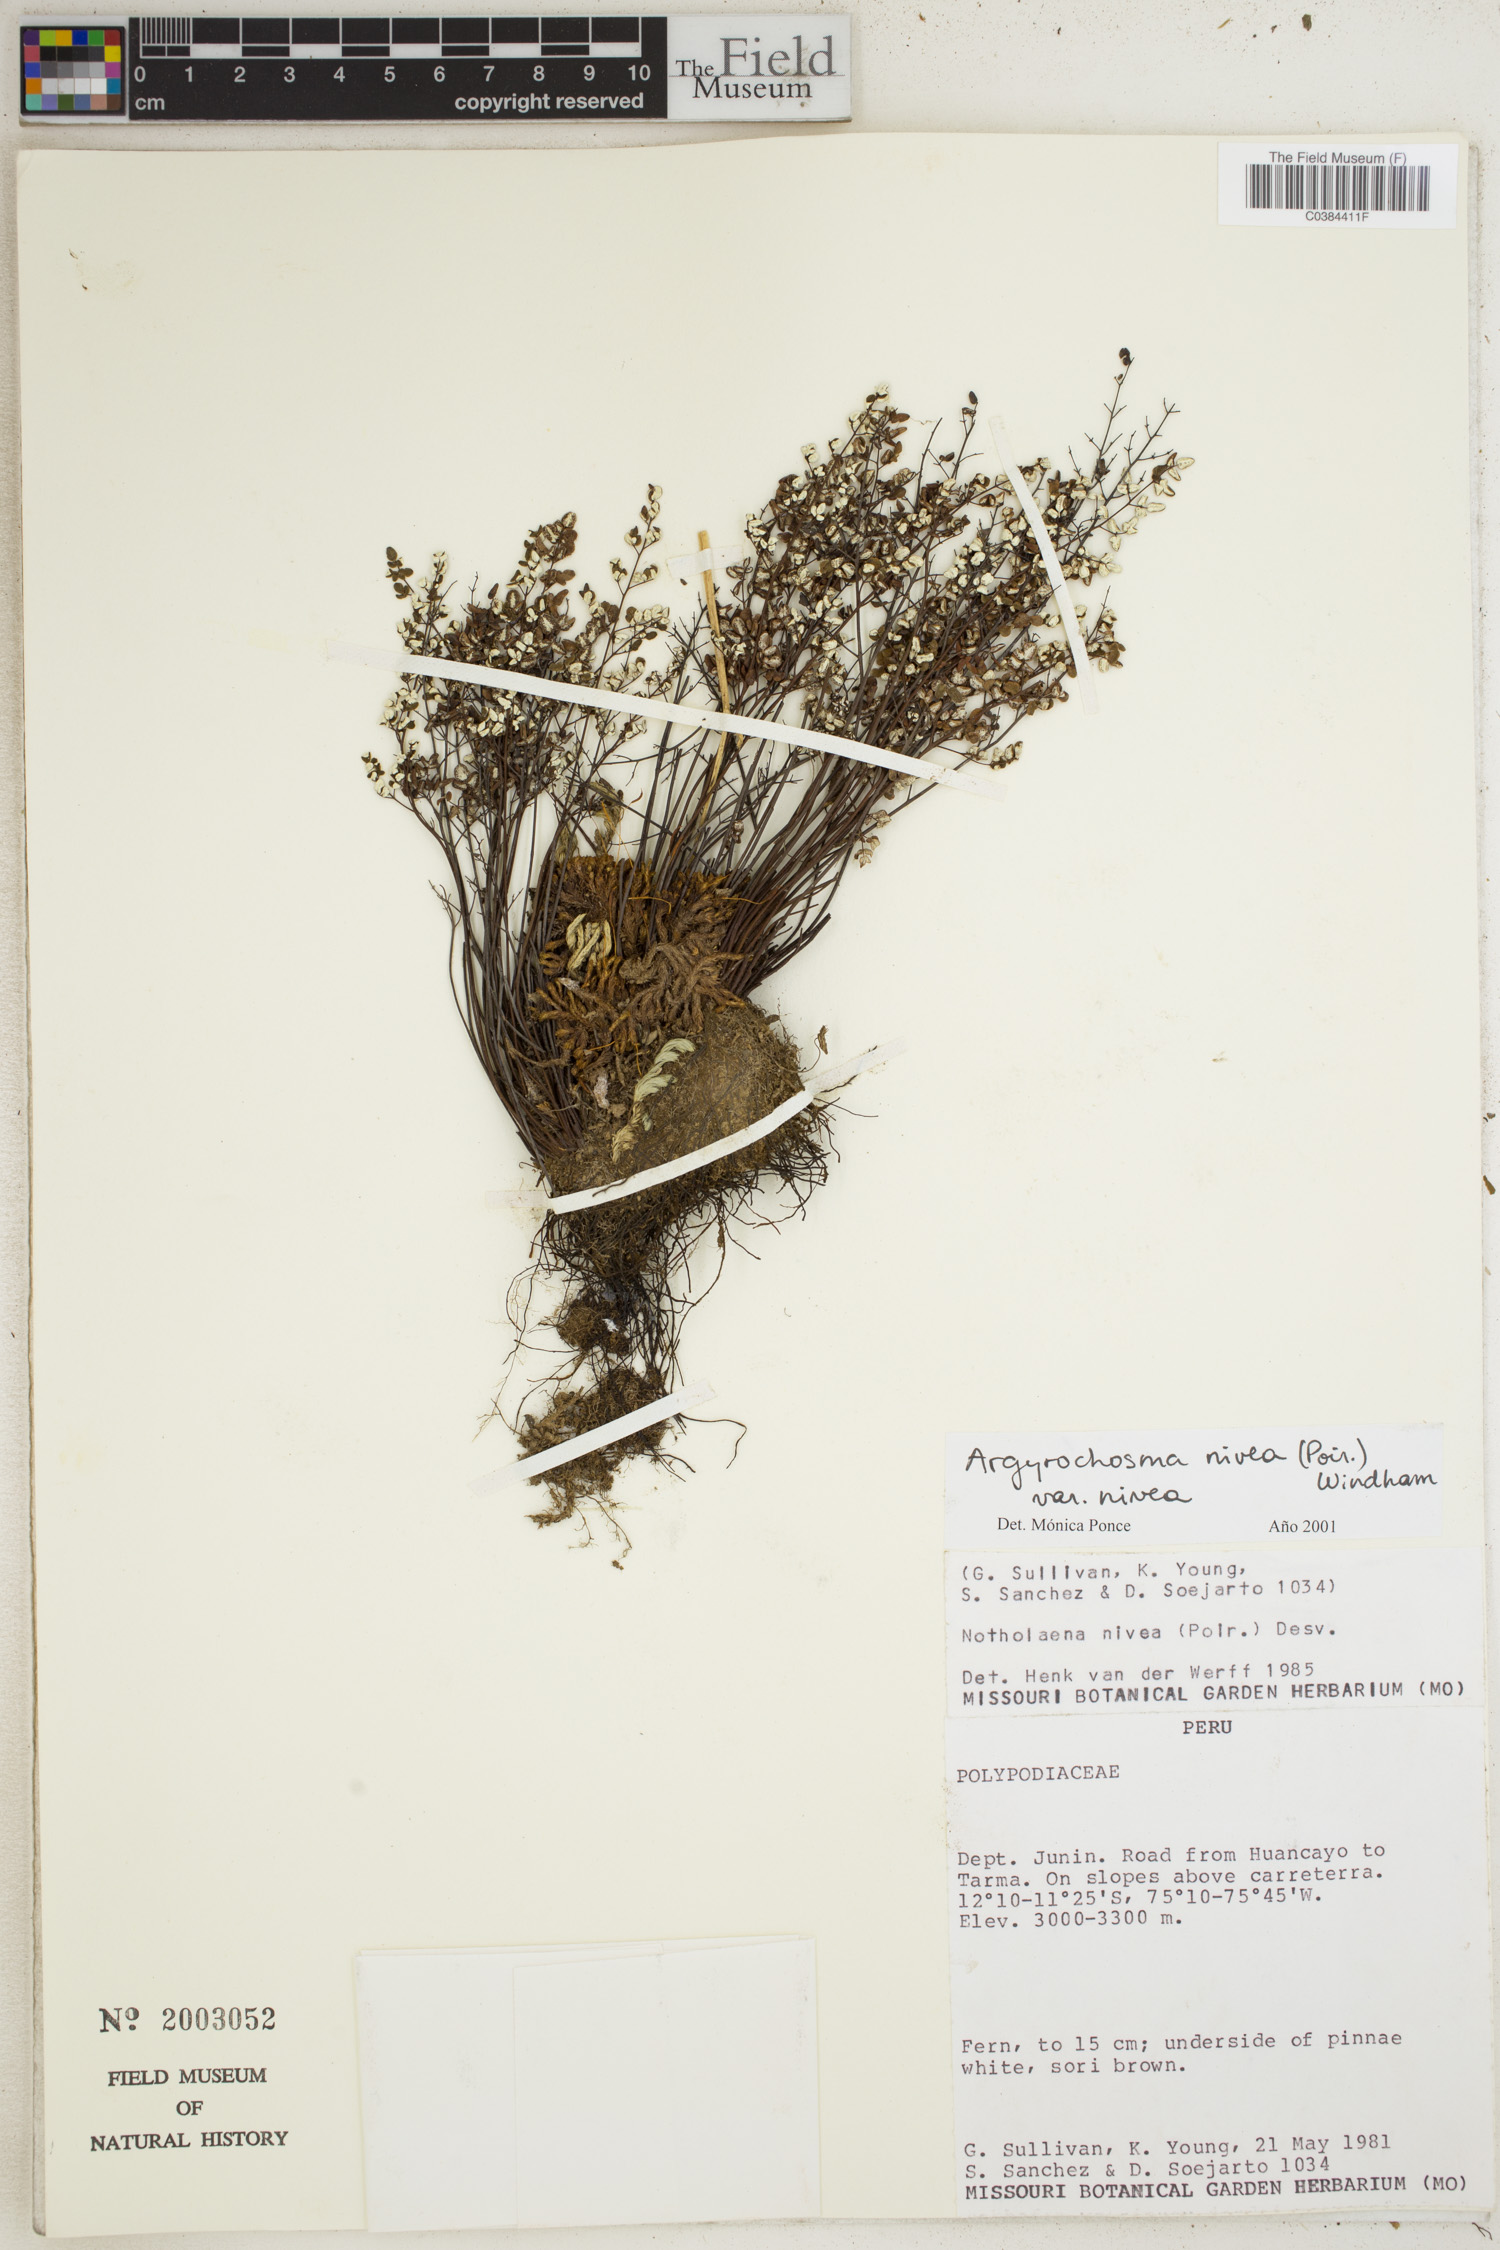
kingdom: Plantae
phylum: Tracheophyta
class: Polypodiopsida
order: Polypodiales
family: Pteridaceae
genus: Argyrochosma
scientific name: Argyrochosma nivea
